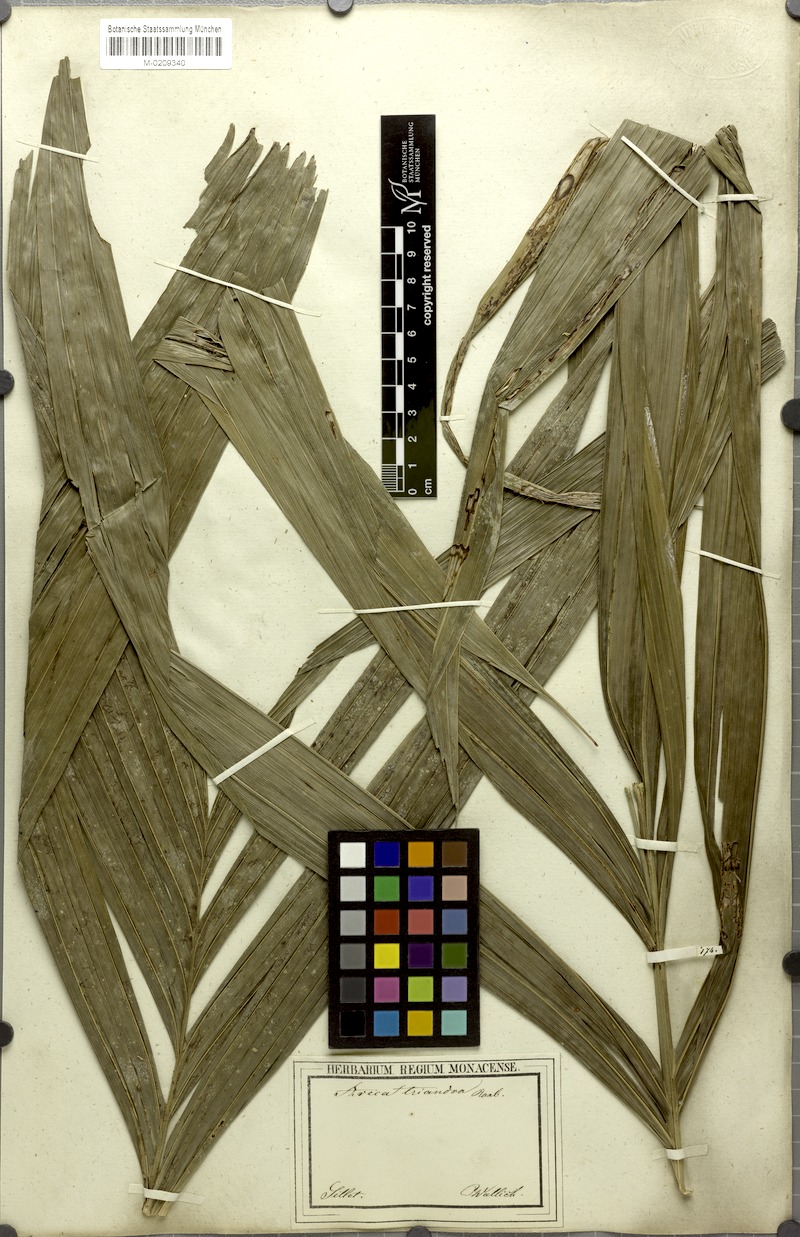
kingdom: Plantae
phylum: Tracheophyta
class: Liliopsida
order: Arecales
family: Arecaceae
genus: Areca
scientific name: Areca triandra
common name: Australian areca palm
